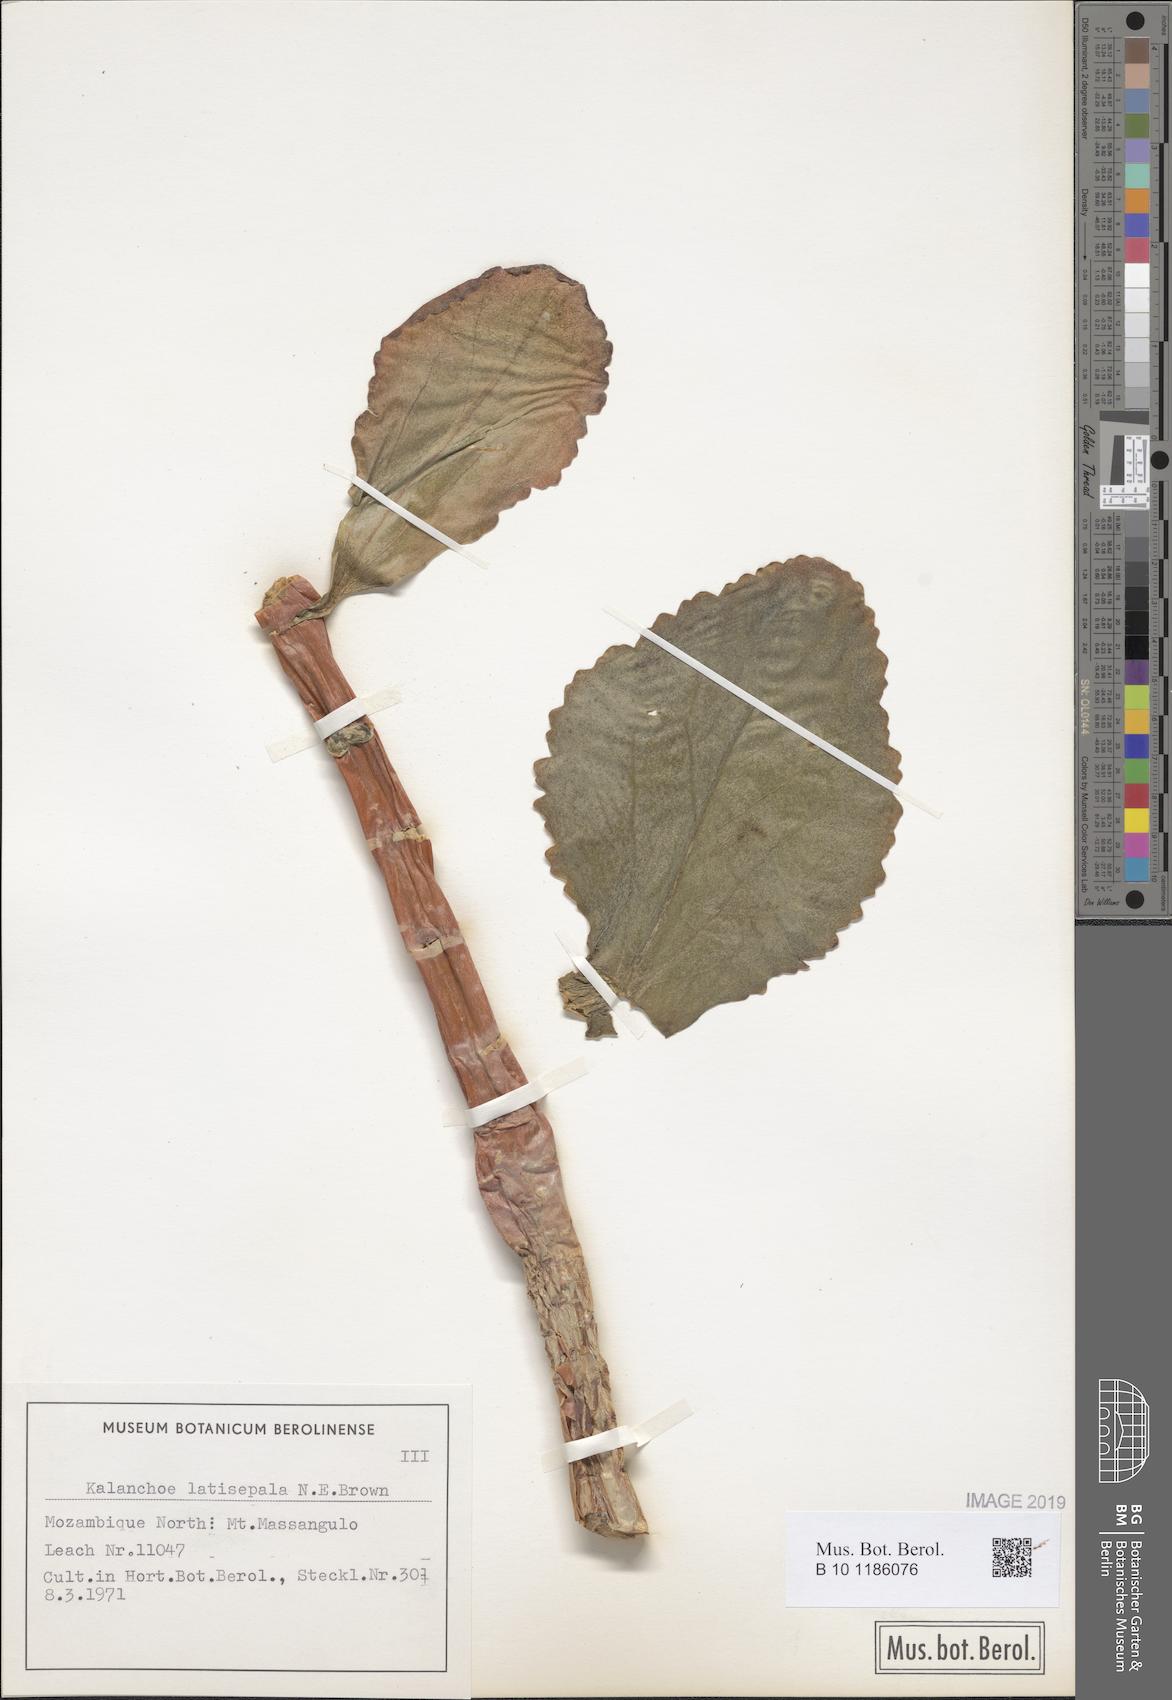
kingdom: Plantae
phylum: Tracheophyta
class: Magnoliopsida
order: Saxifragales
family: Crassulaceae
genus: Kalanchoe
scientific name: Kalanchoe latisepala
